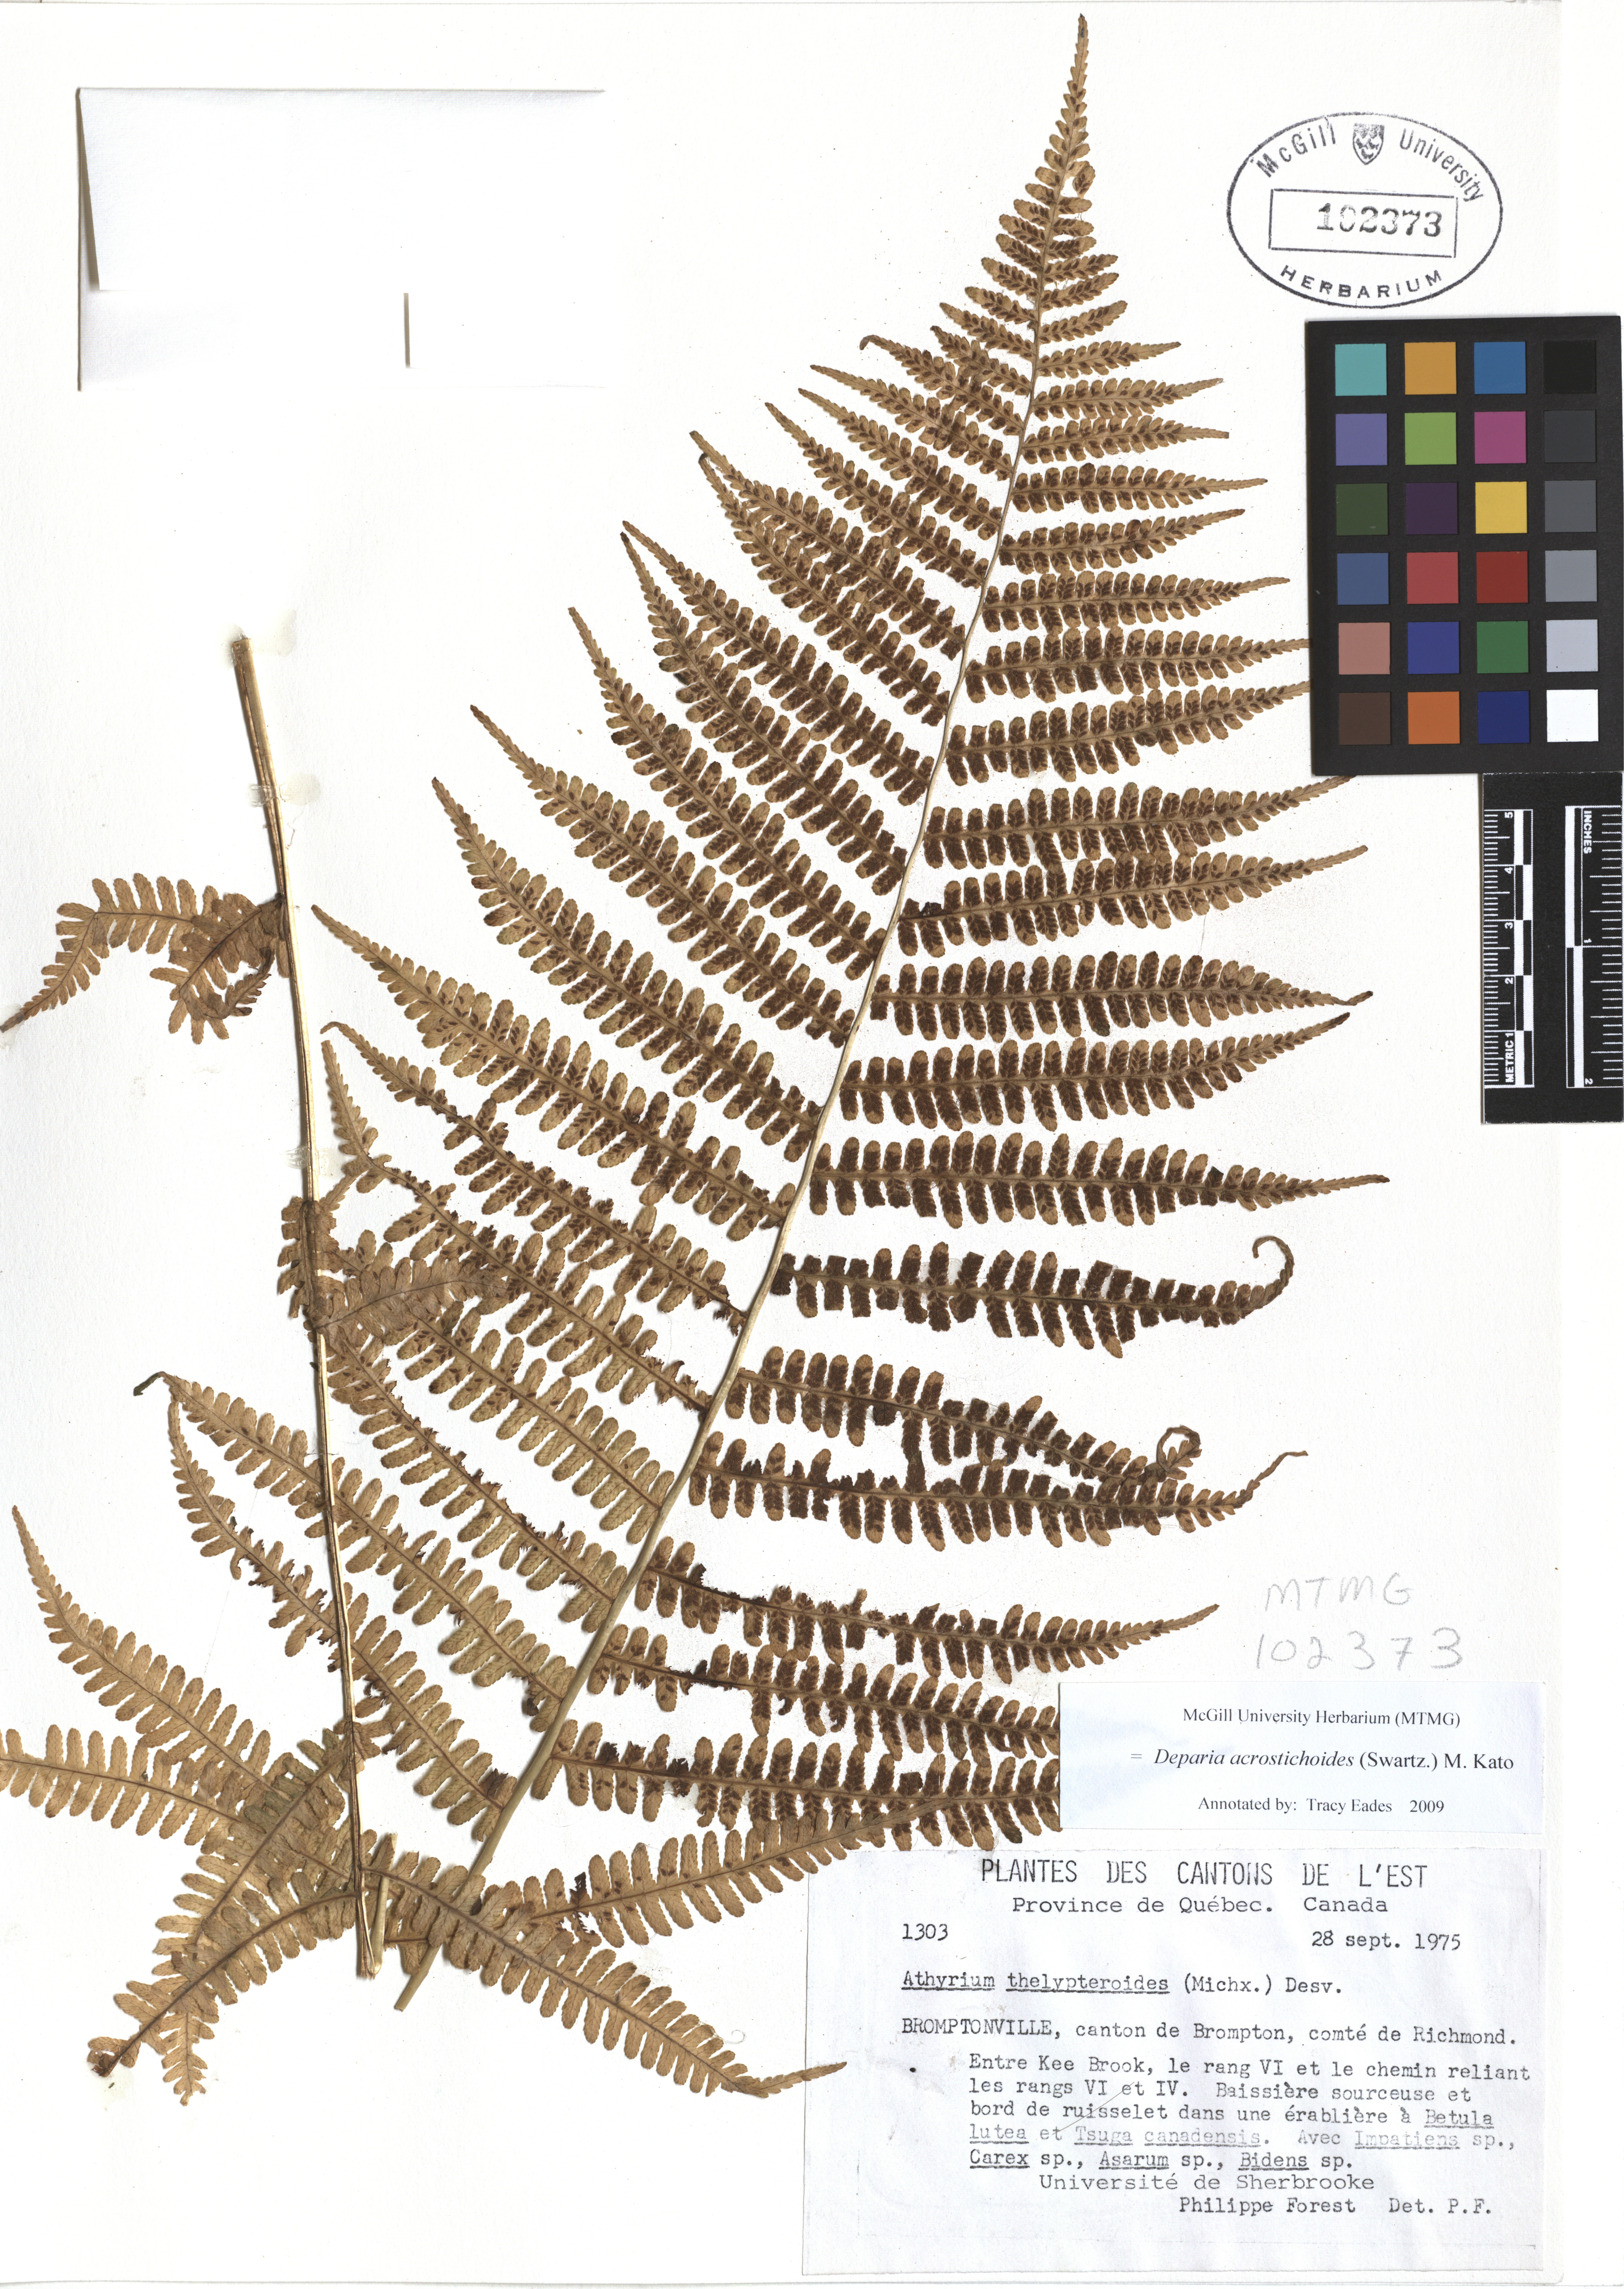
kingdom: Plantae
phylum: Tracheophyta
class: Polypodiopsida
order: Polypodiales
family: Athyriaceae
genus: Deparia
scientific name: Deparia acrostichoides
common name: Silver false spleenwort
